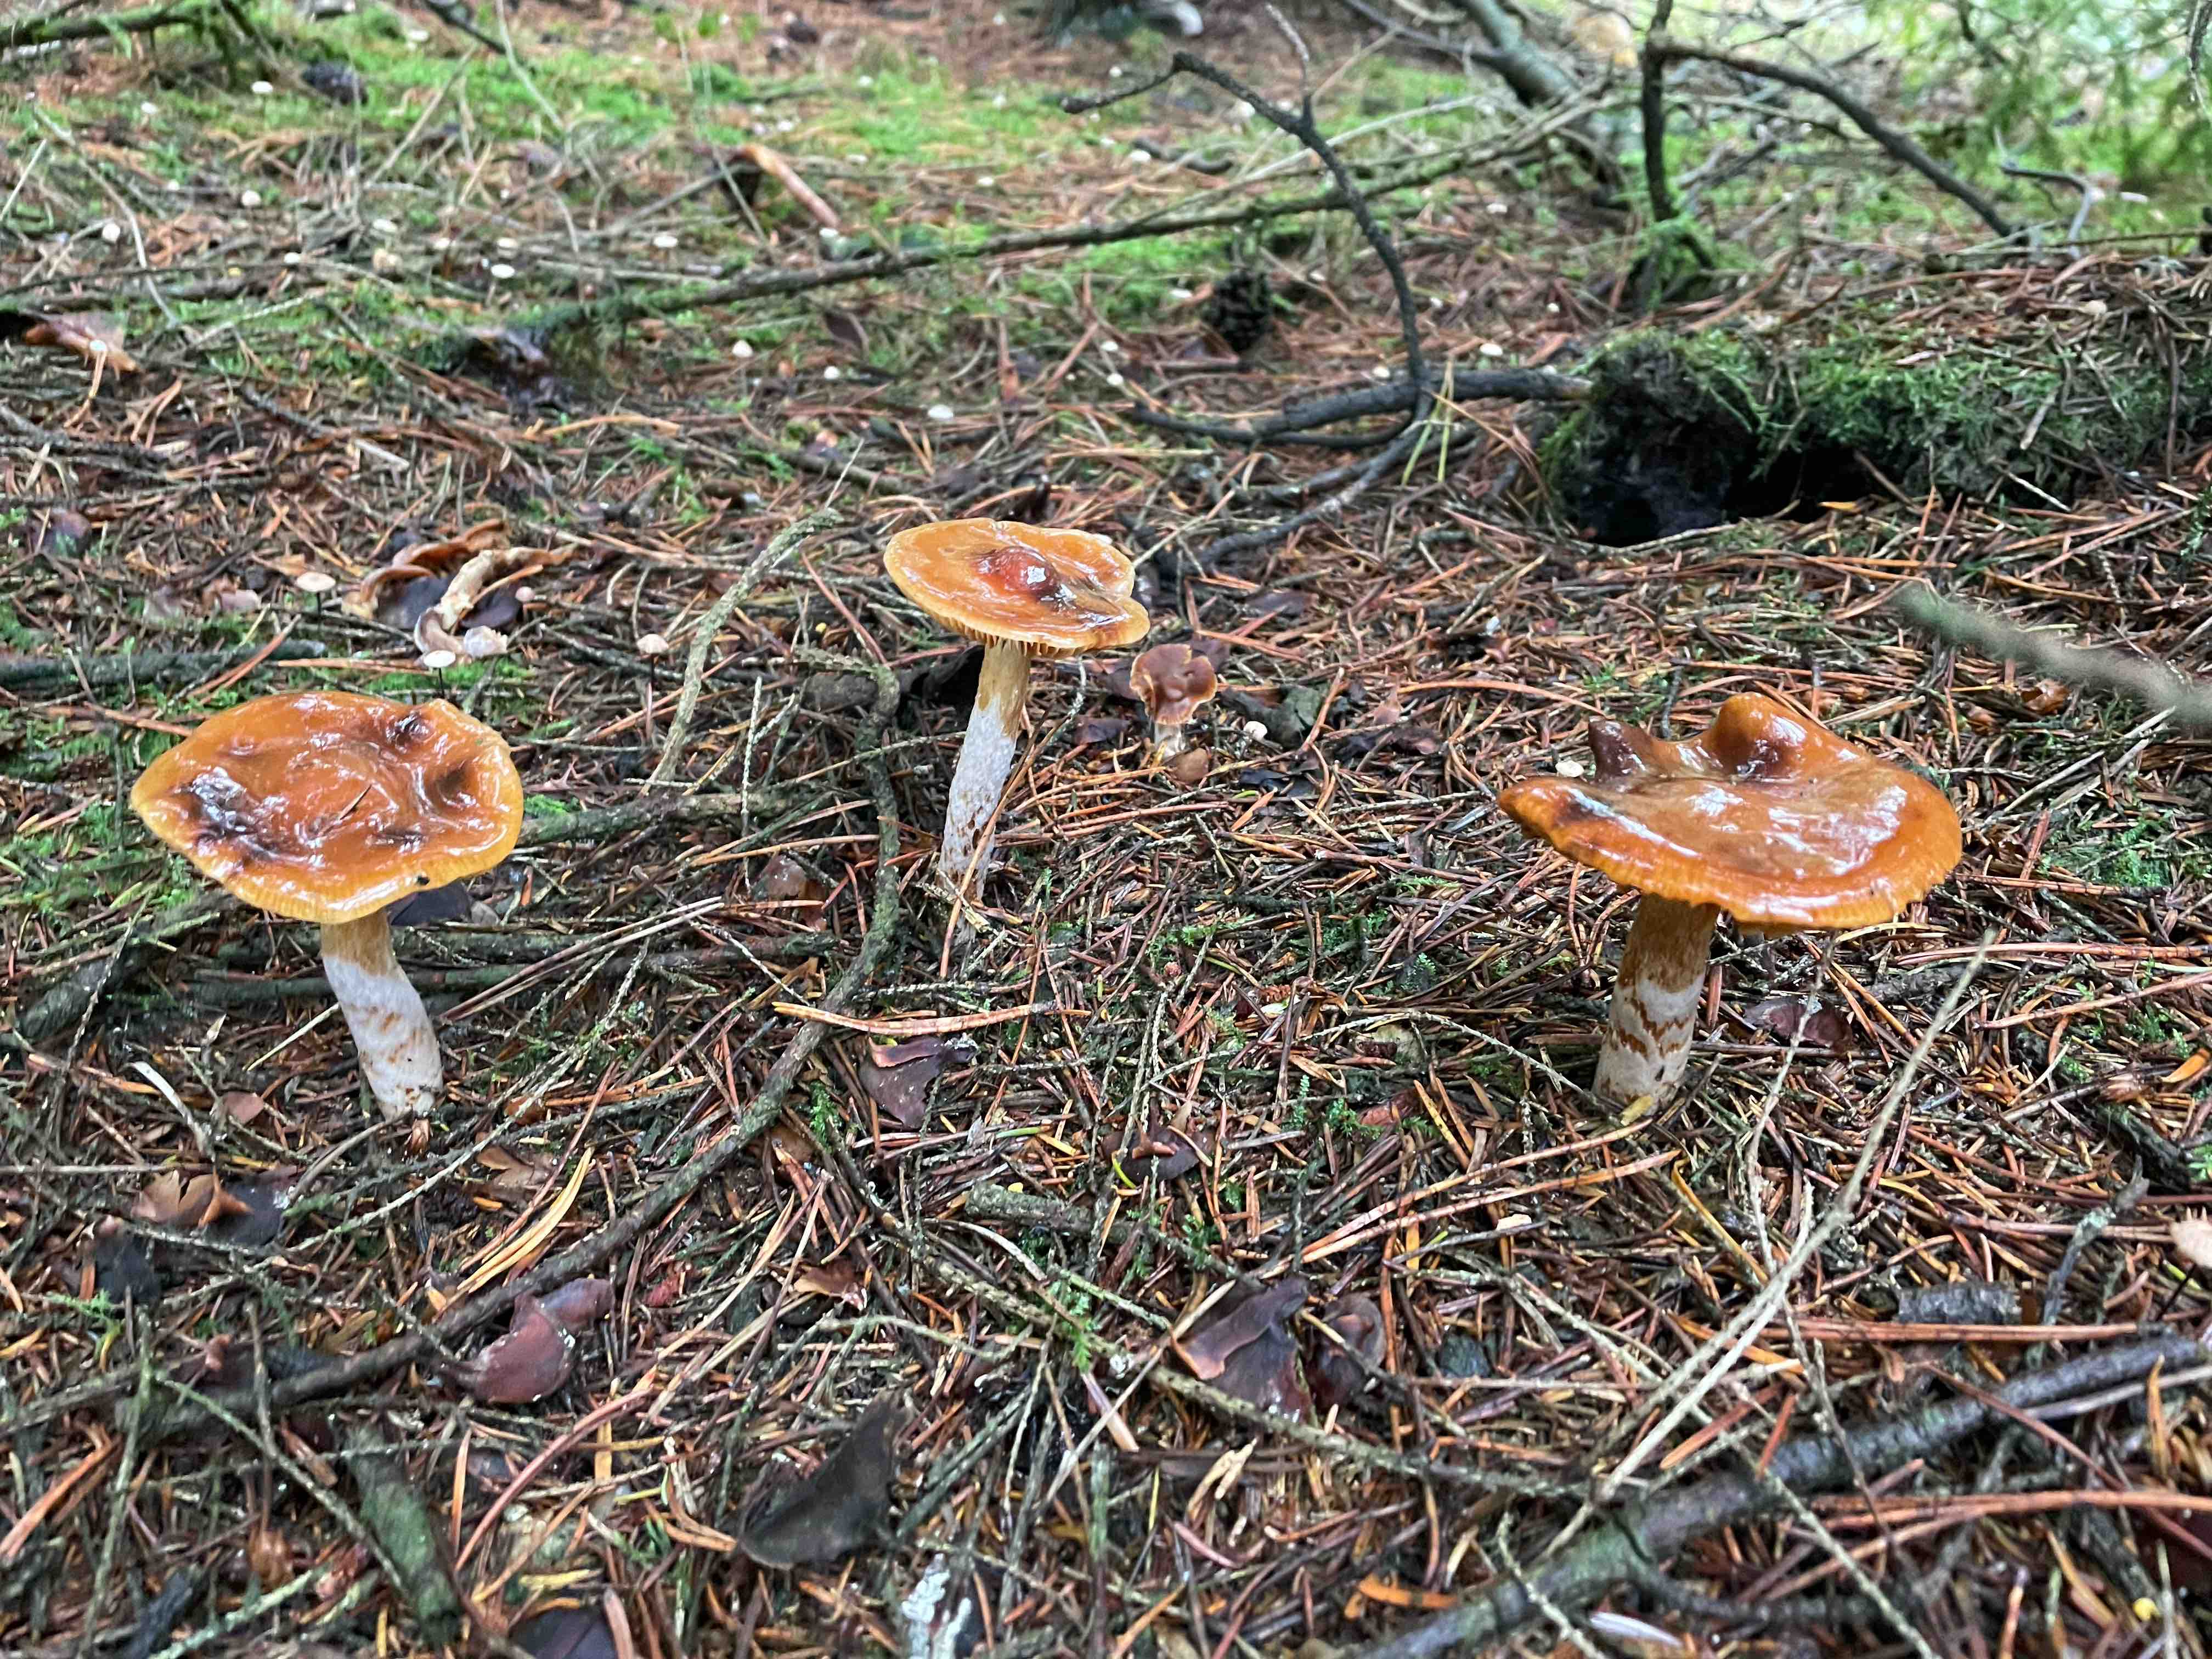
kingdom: Fungi
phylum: Basidiomycota
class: Agaricomycetes
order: Agaricales
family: Cortinariaceae
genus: Cortinarius
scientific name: Cortinarius mucosus
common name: kastaniebrun slørhat
